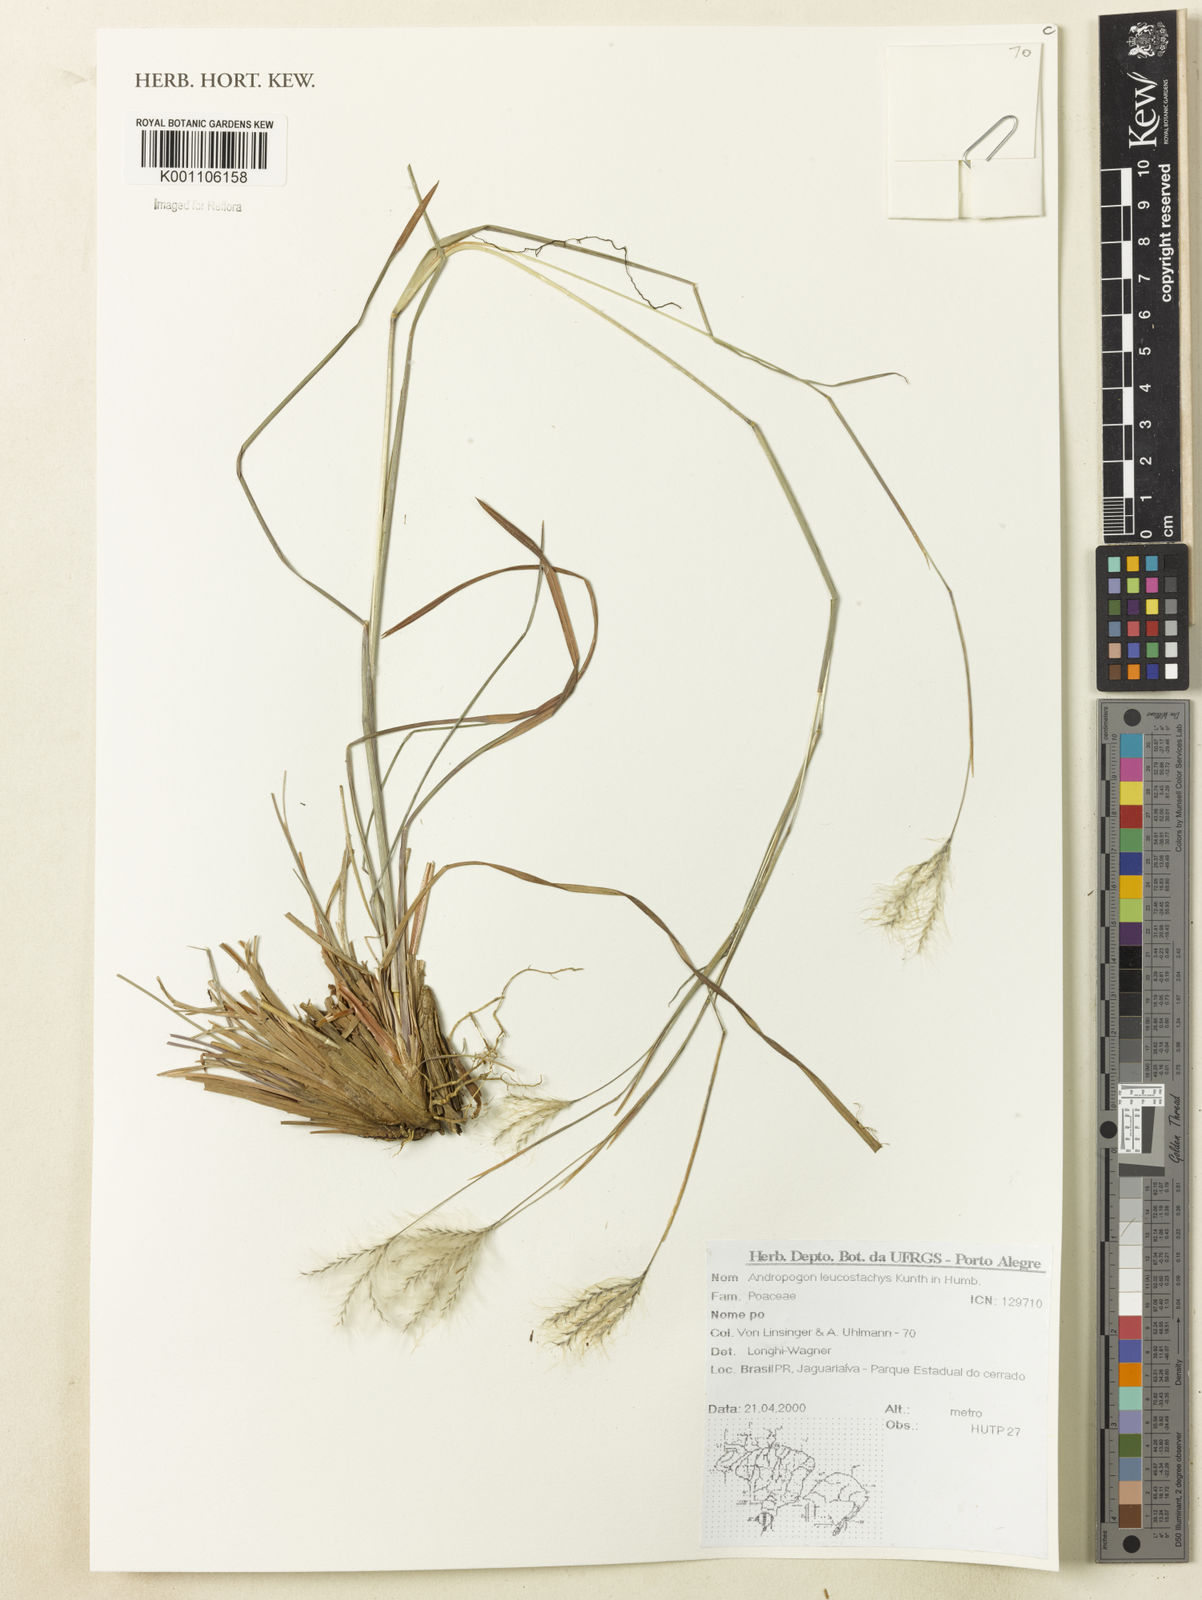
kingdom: Plantae
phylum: Tracheophyta
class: Liliopsida
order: Poales
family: Poaceae
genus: Andropogon
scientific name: Andropogon leucostachyus
